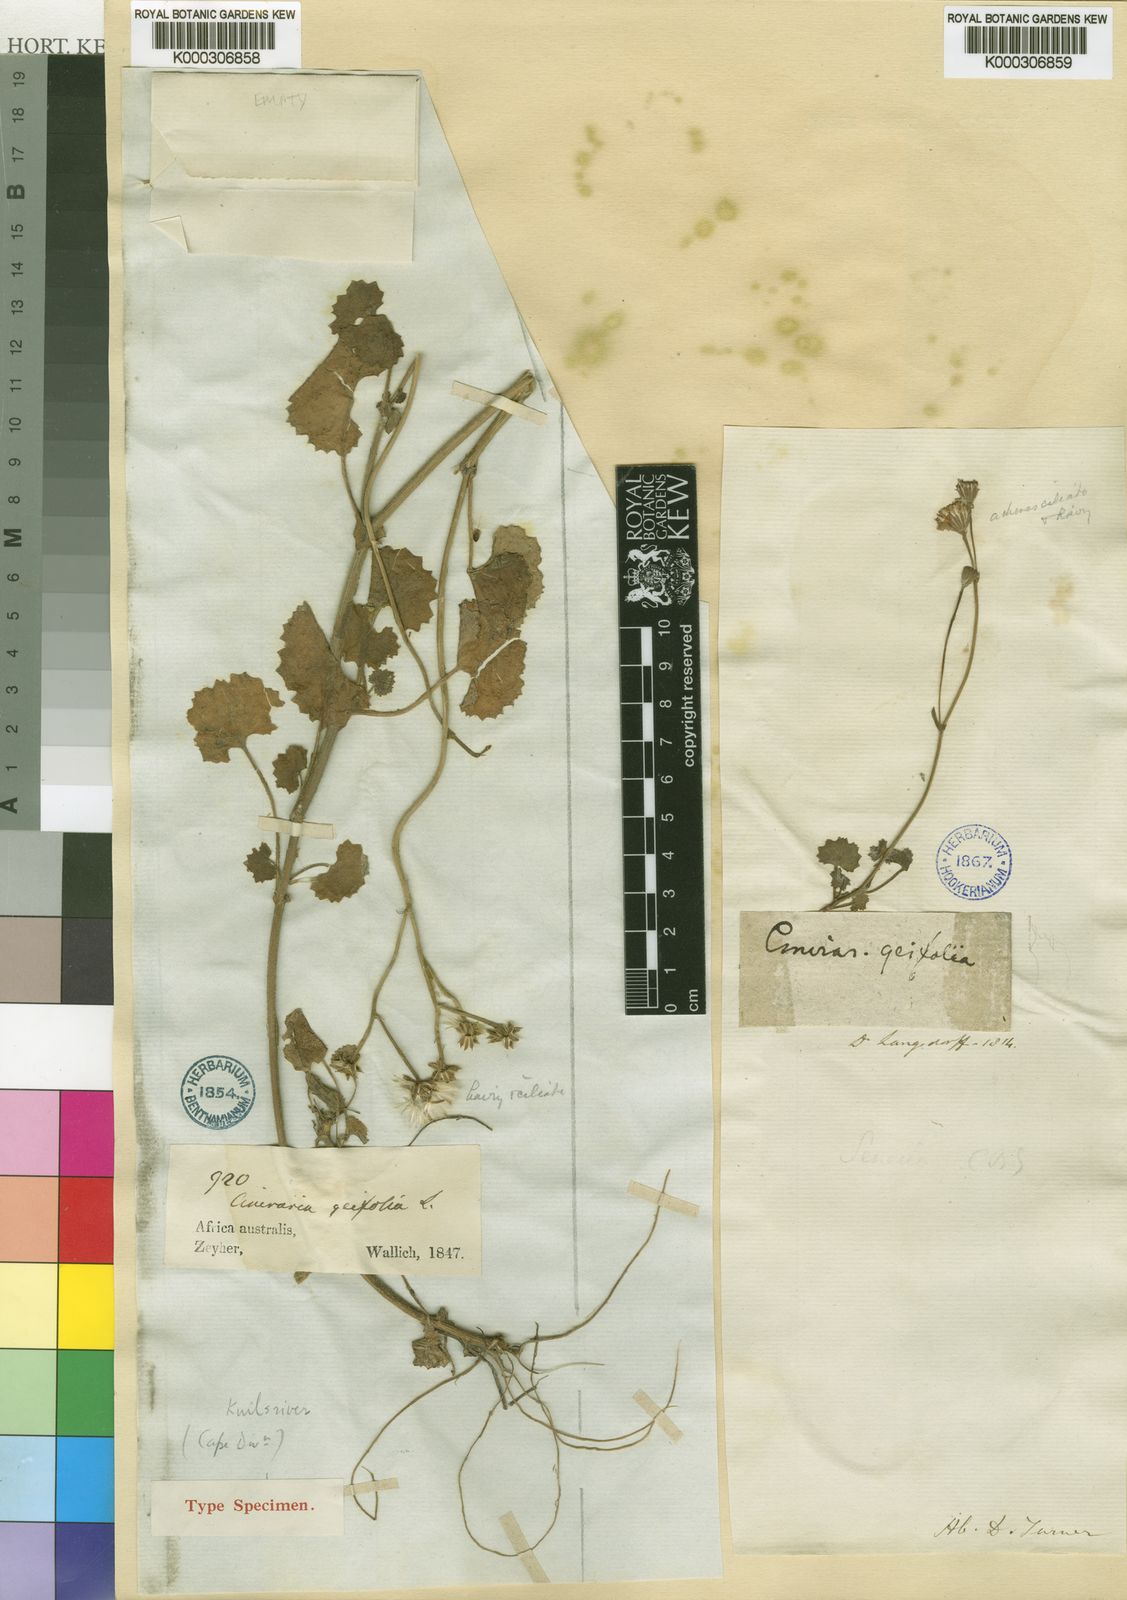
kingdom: Plantae
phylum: Tracheophyta
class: Magnoliopsida
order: Asterales
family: Asteraceae
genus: Cineraria
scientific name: Cineraria geifolia
